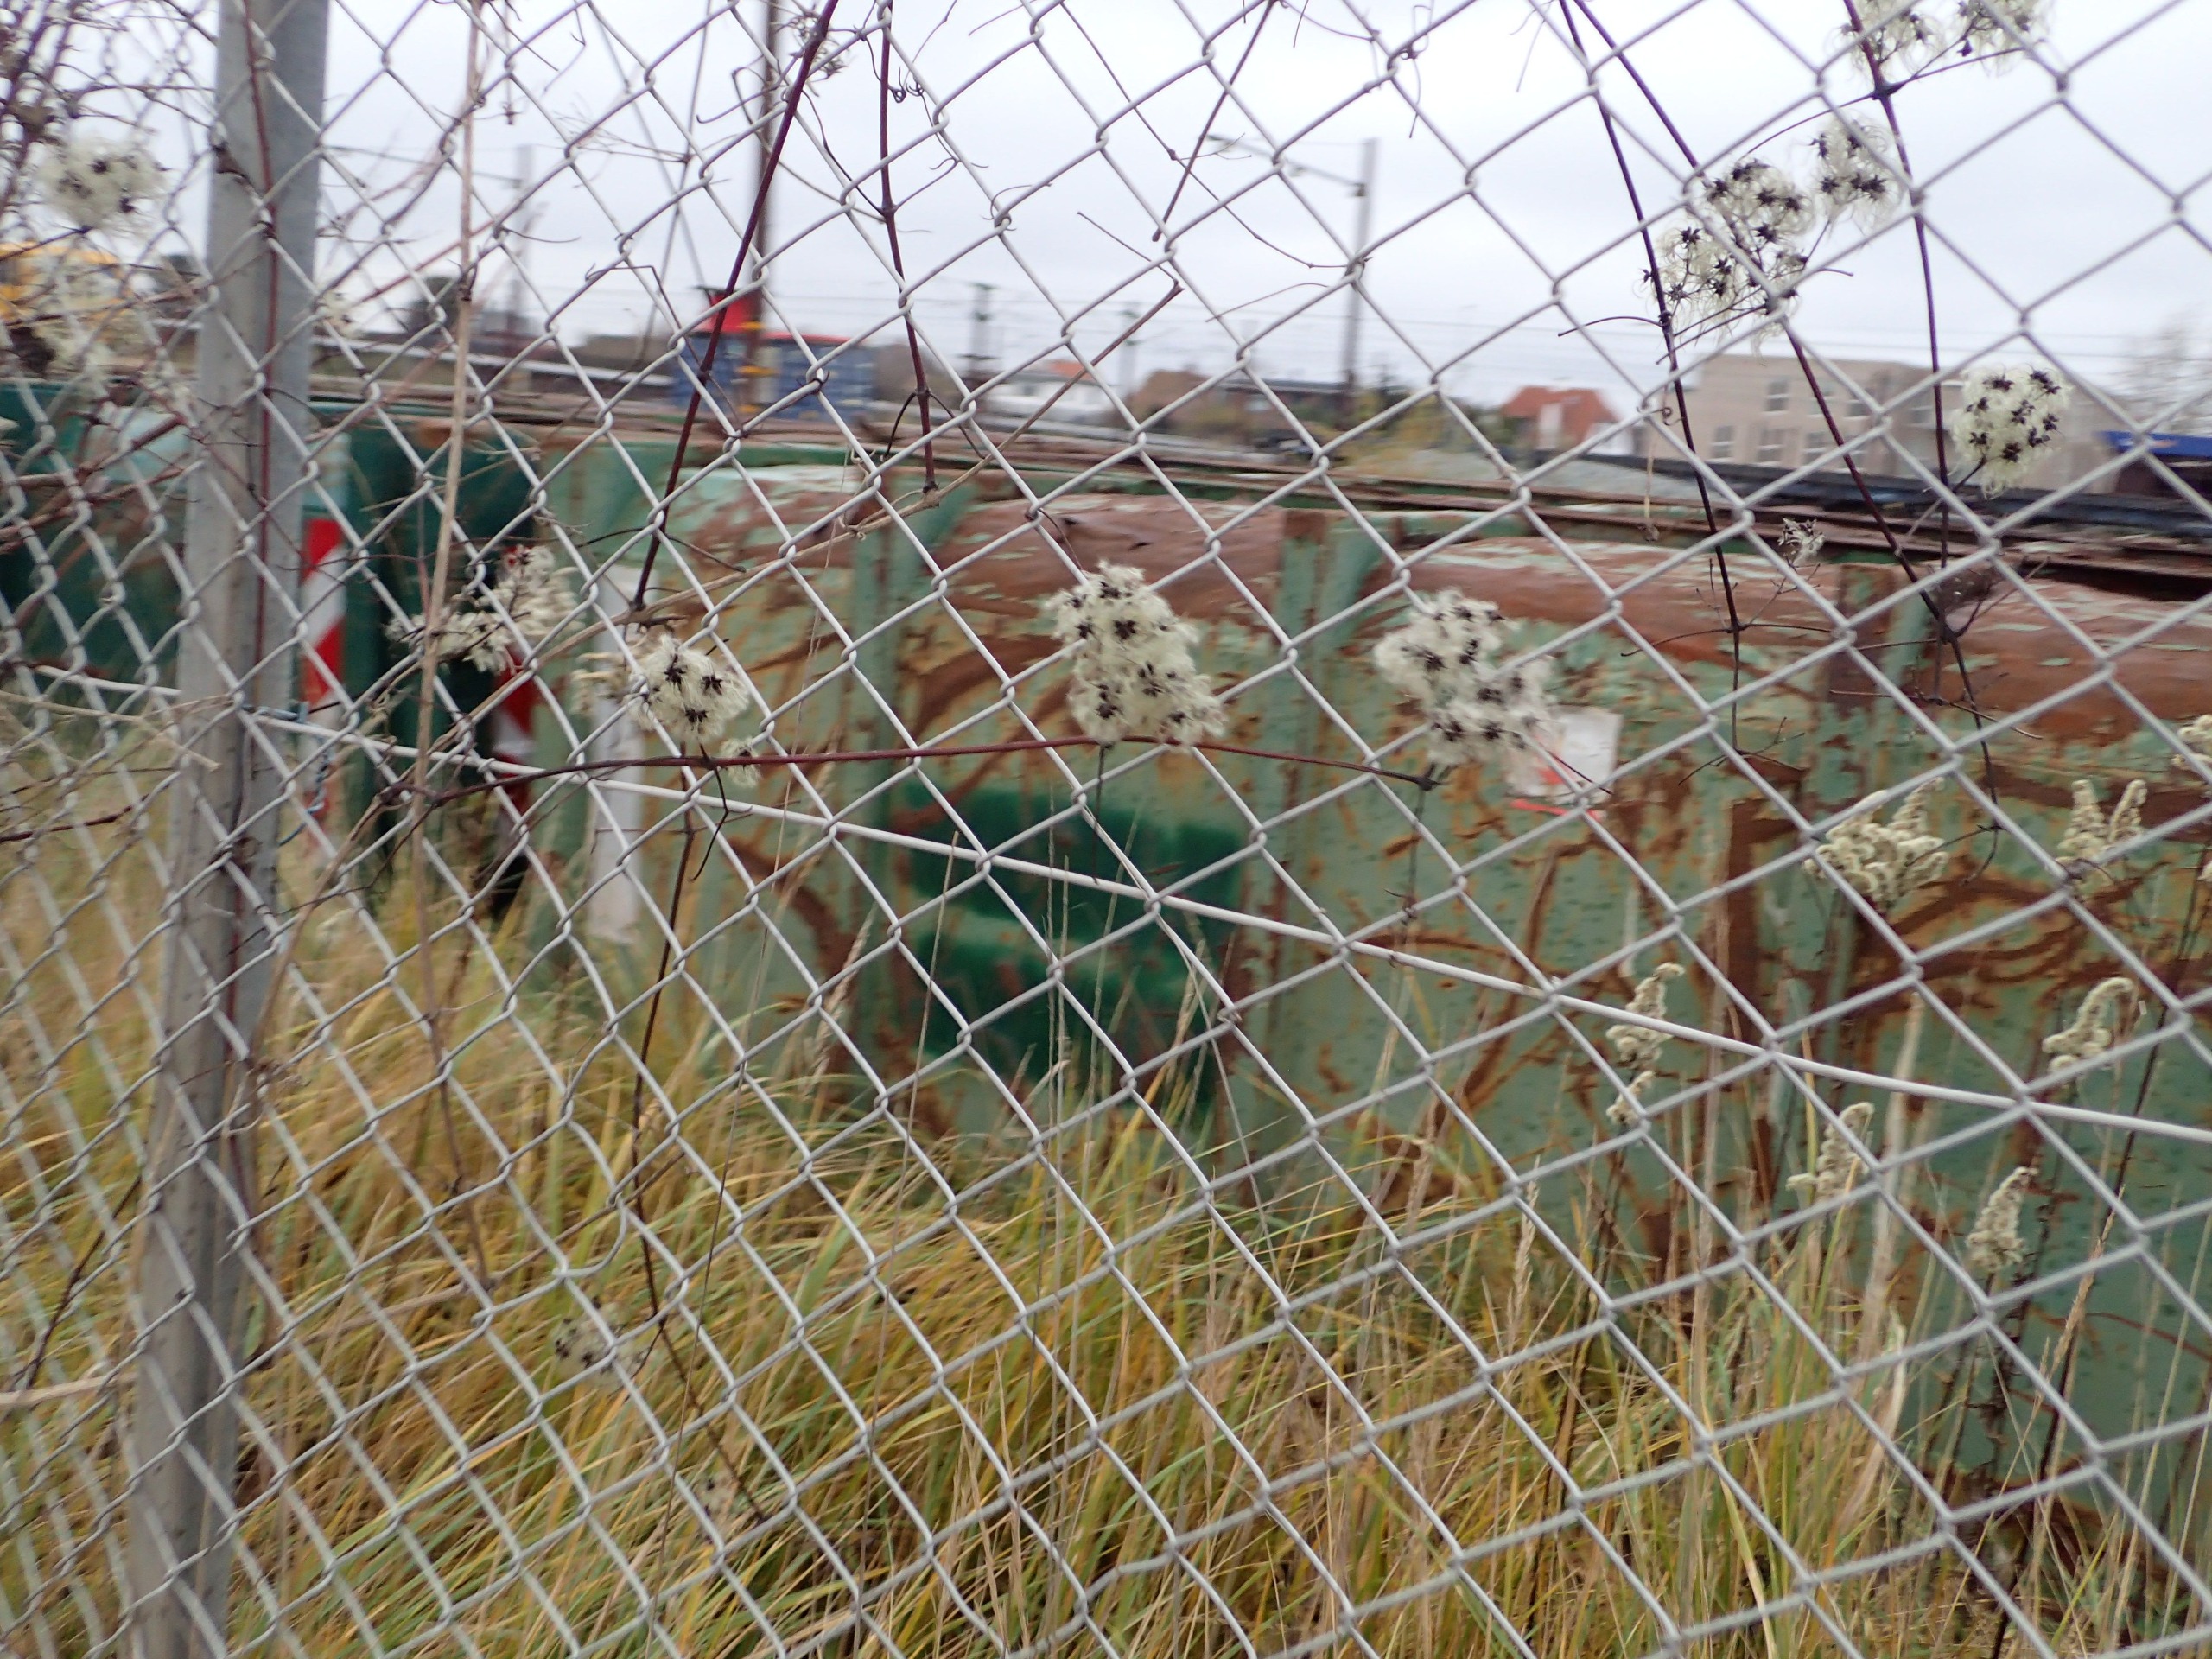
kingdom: Plantae
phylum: Tracheophyta
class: Magnoliopsida
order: Ranunculales
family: Ranunculaceae
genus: Clematis
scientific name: Clematis vitalba
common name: Skovranke
